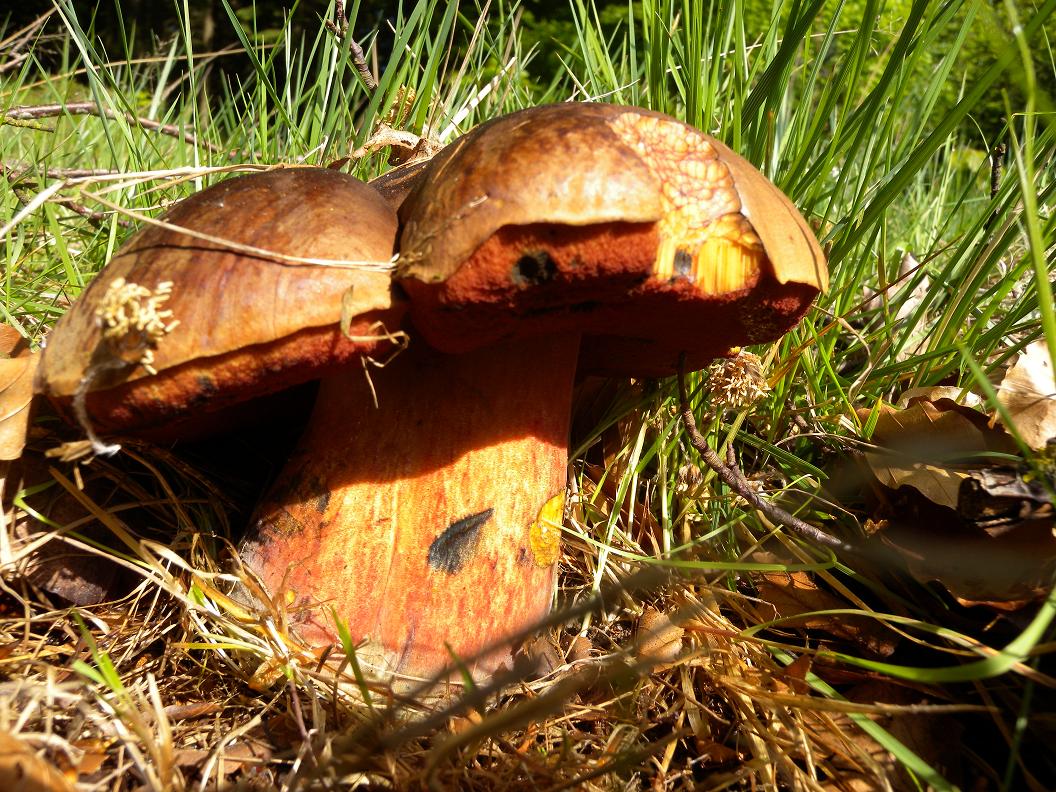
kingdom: Fungi
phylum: Basidiomycota
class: Agaricomycetes
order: Boletales
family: Boletaceae
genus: Neoboletus
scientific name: Neoboletus erythropus
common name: punktstokket indigorørhat
